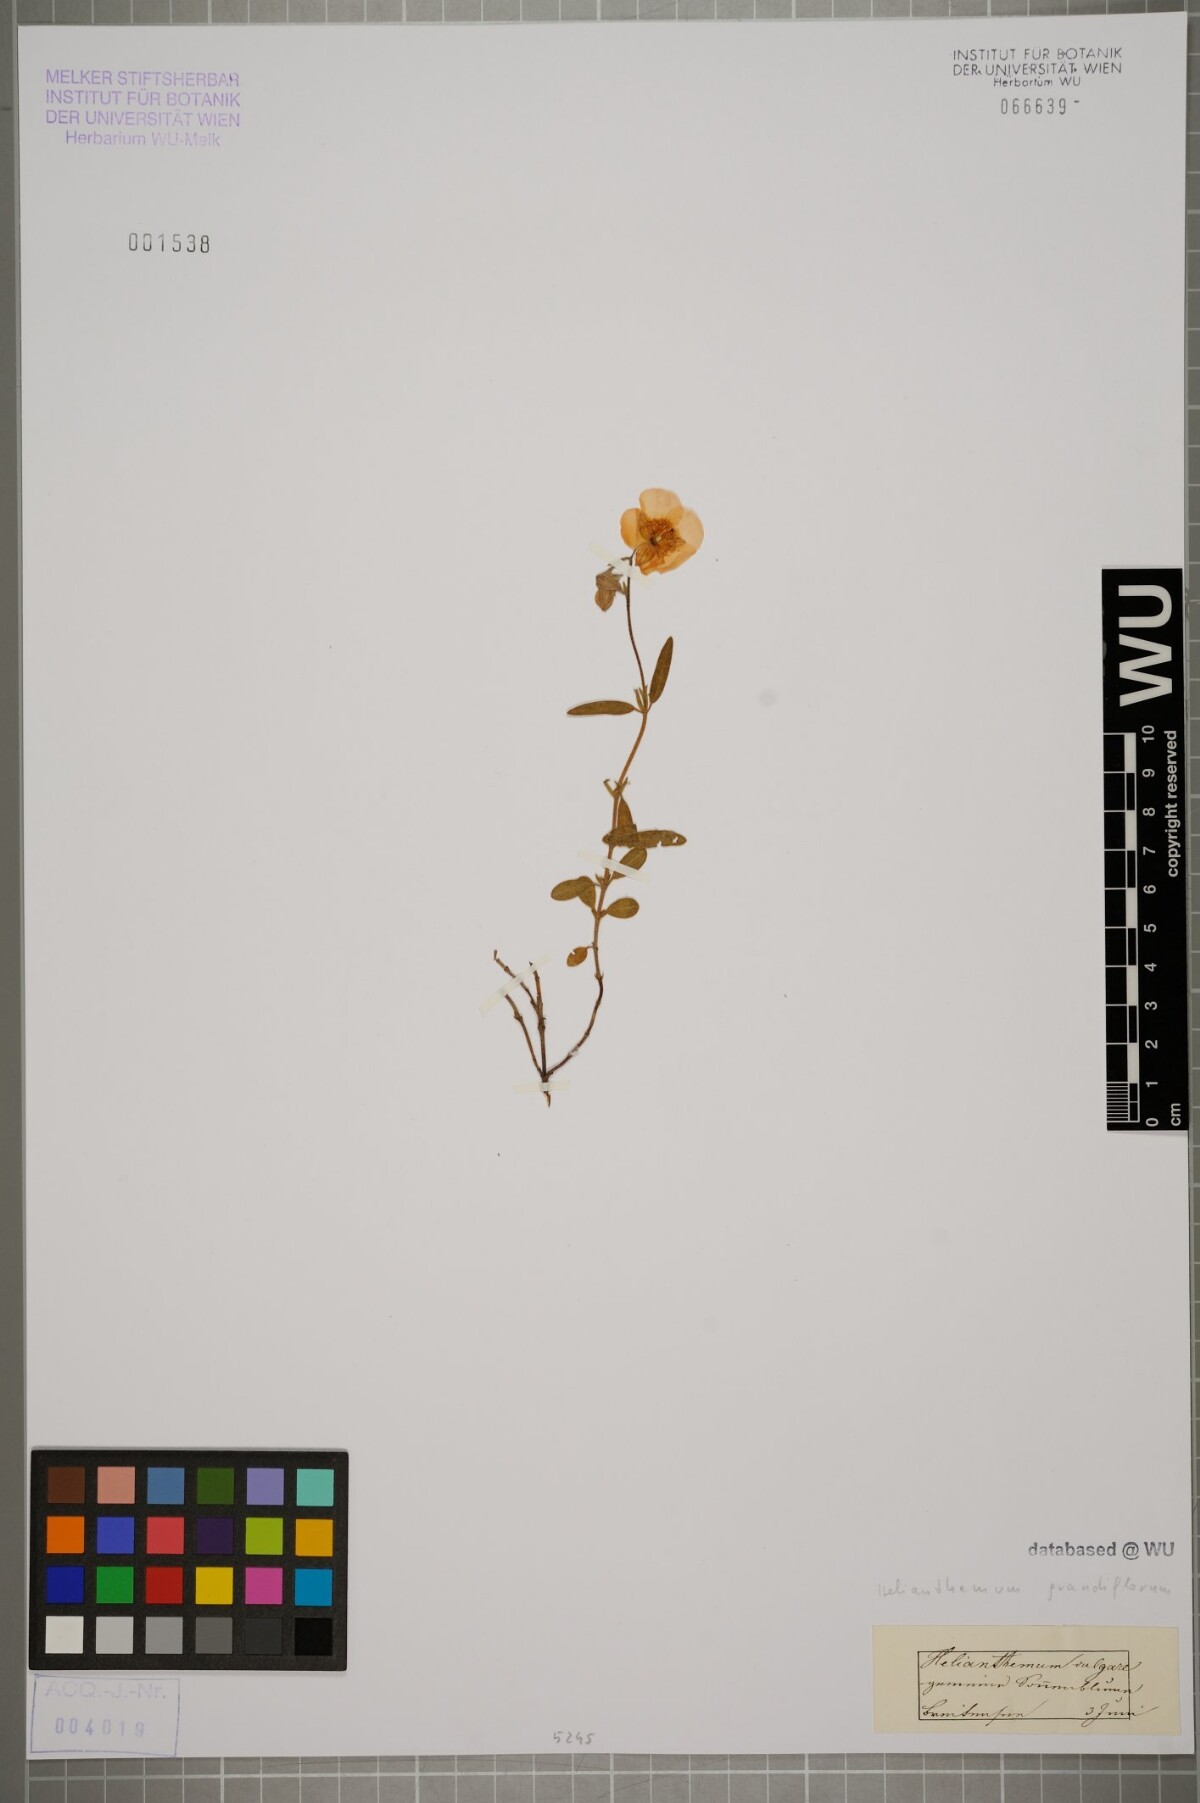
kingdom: Plantae
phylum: Tracheophyta
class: Magnoliopsida
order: Malvales
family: Cistaceae
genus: Helianthemum
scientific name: Helianthemum nummularium
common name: Common rock-rose
